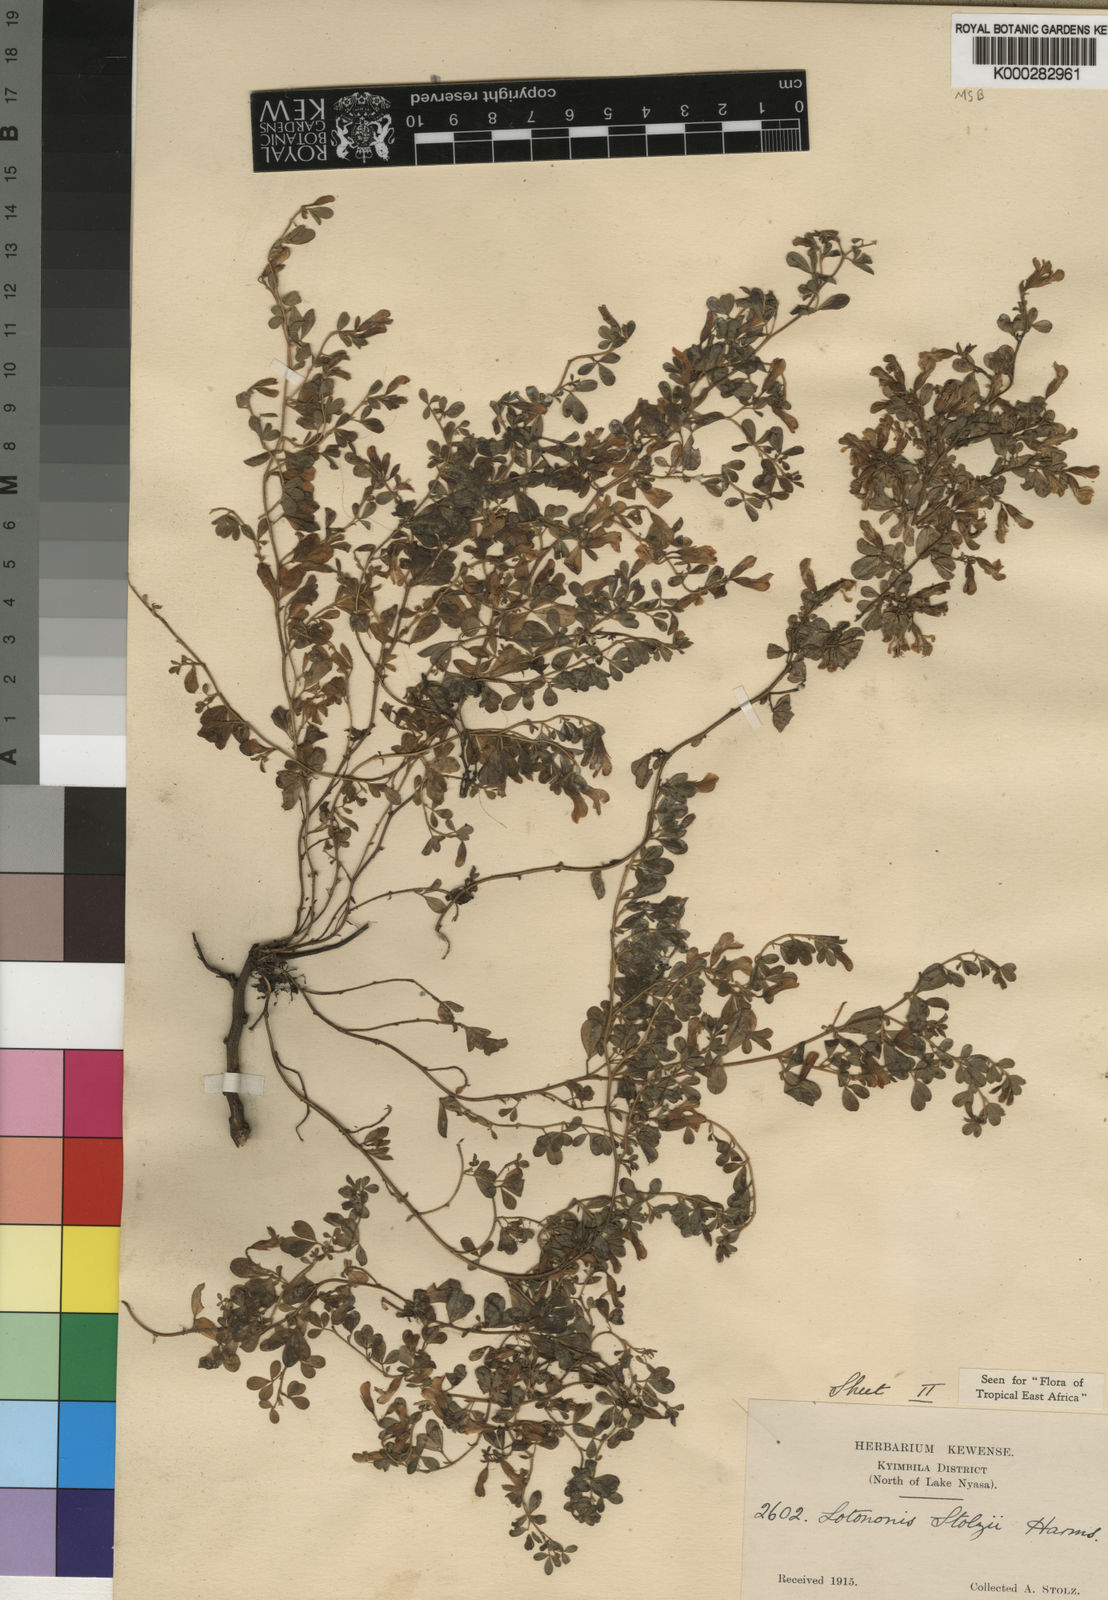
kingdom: Plantae
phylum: Tracheophyta
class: Magnoliopsida
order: Fabales
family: Fabaceae
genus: Leobordea
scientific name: Leobordea stolzii
